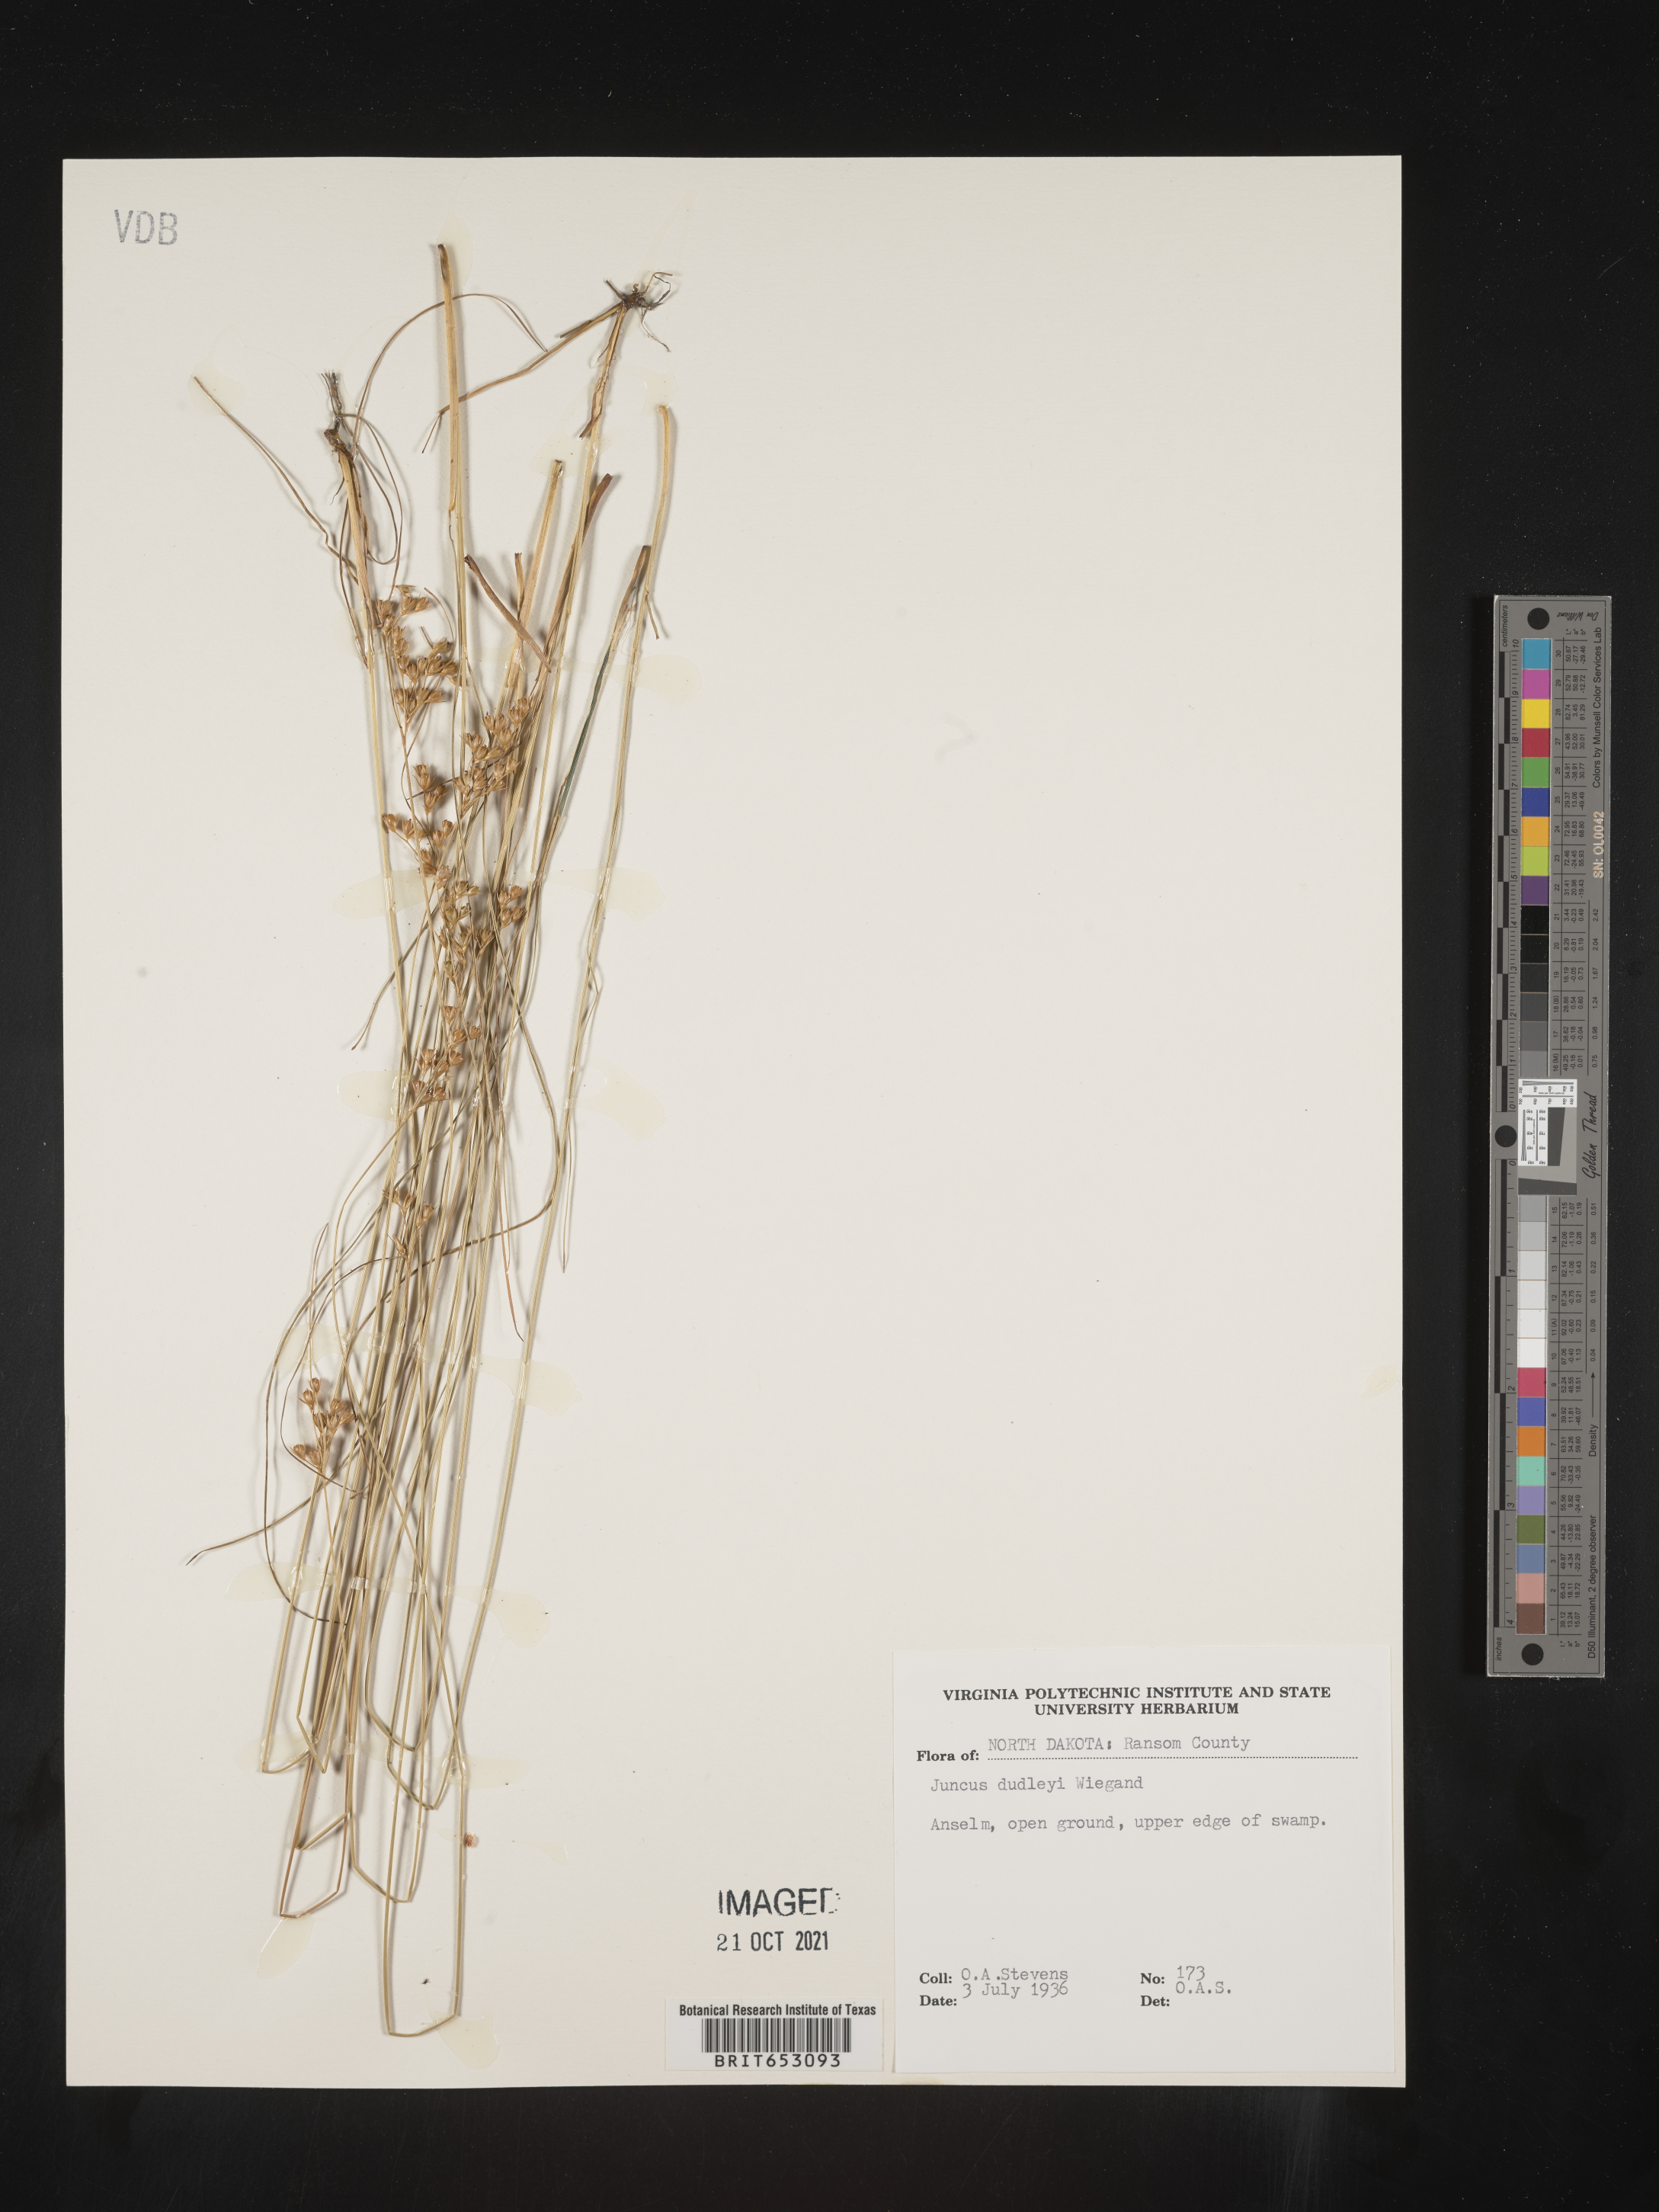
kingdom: Plantae
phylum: Tracheophyta
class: Liliopsida
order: Poales
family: Juncaceae
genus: Juncus
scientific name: Juncus dudleyi
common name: Dudley's rush
